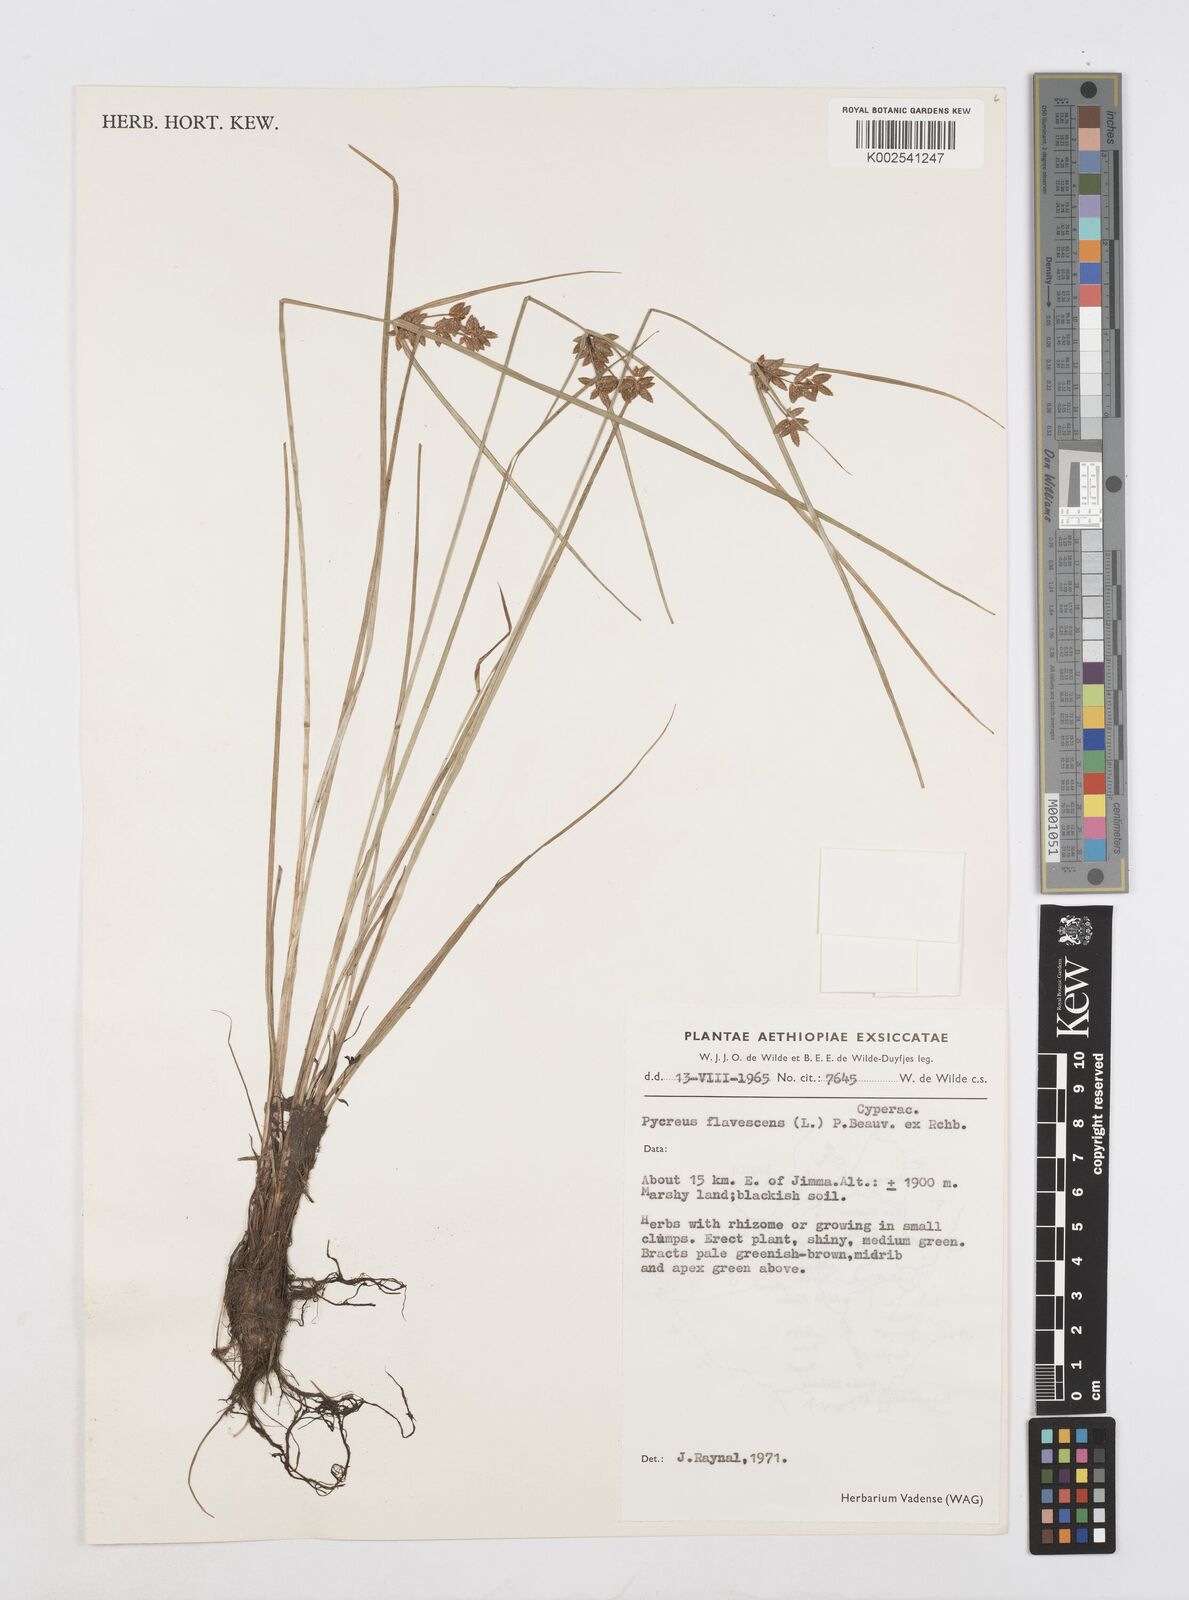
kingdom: Plantae
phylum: Tracheophyta
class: Liliopsida
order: Poales
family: Cyperaceae
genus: Cyperus
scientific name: Cyperus flavescens
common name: Yellow galingale
